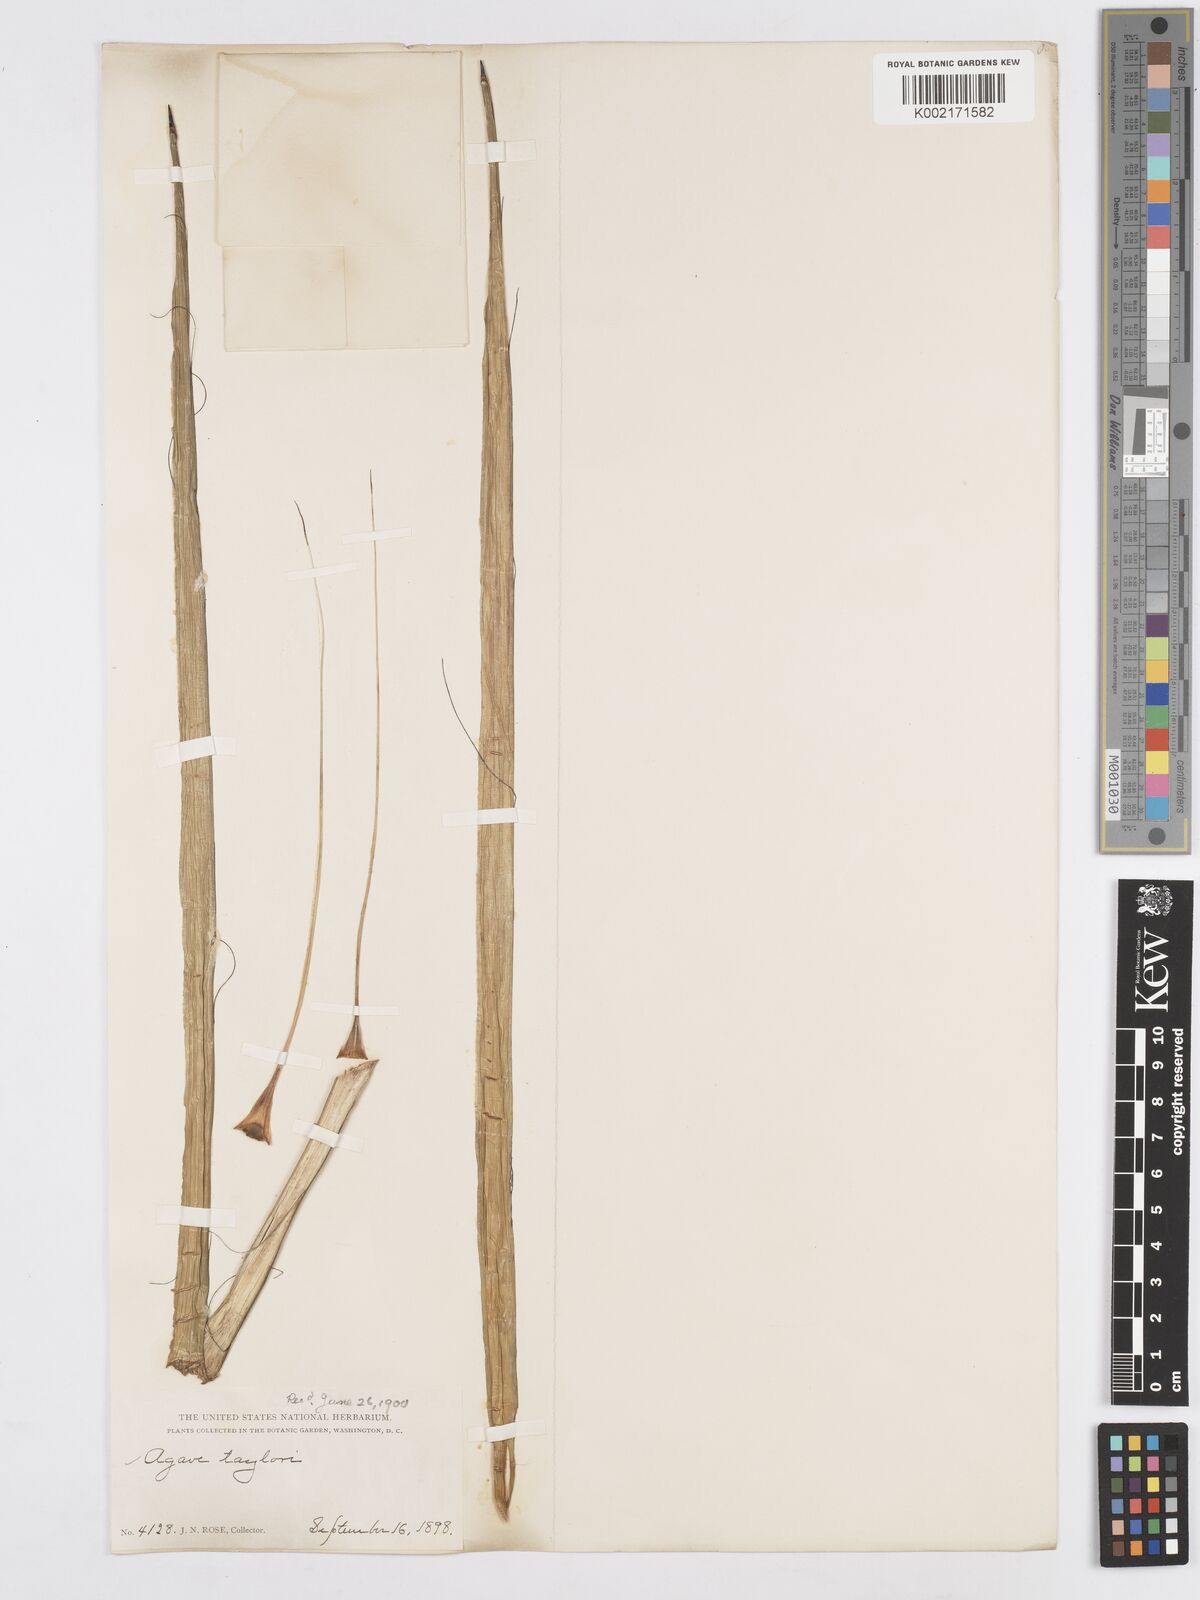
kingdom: Plantae
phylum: Tracheophyta
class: Liliopsida
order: Asparagales
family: Asparagaceae
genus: Agave
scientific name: Agave schidigera
